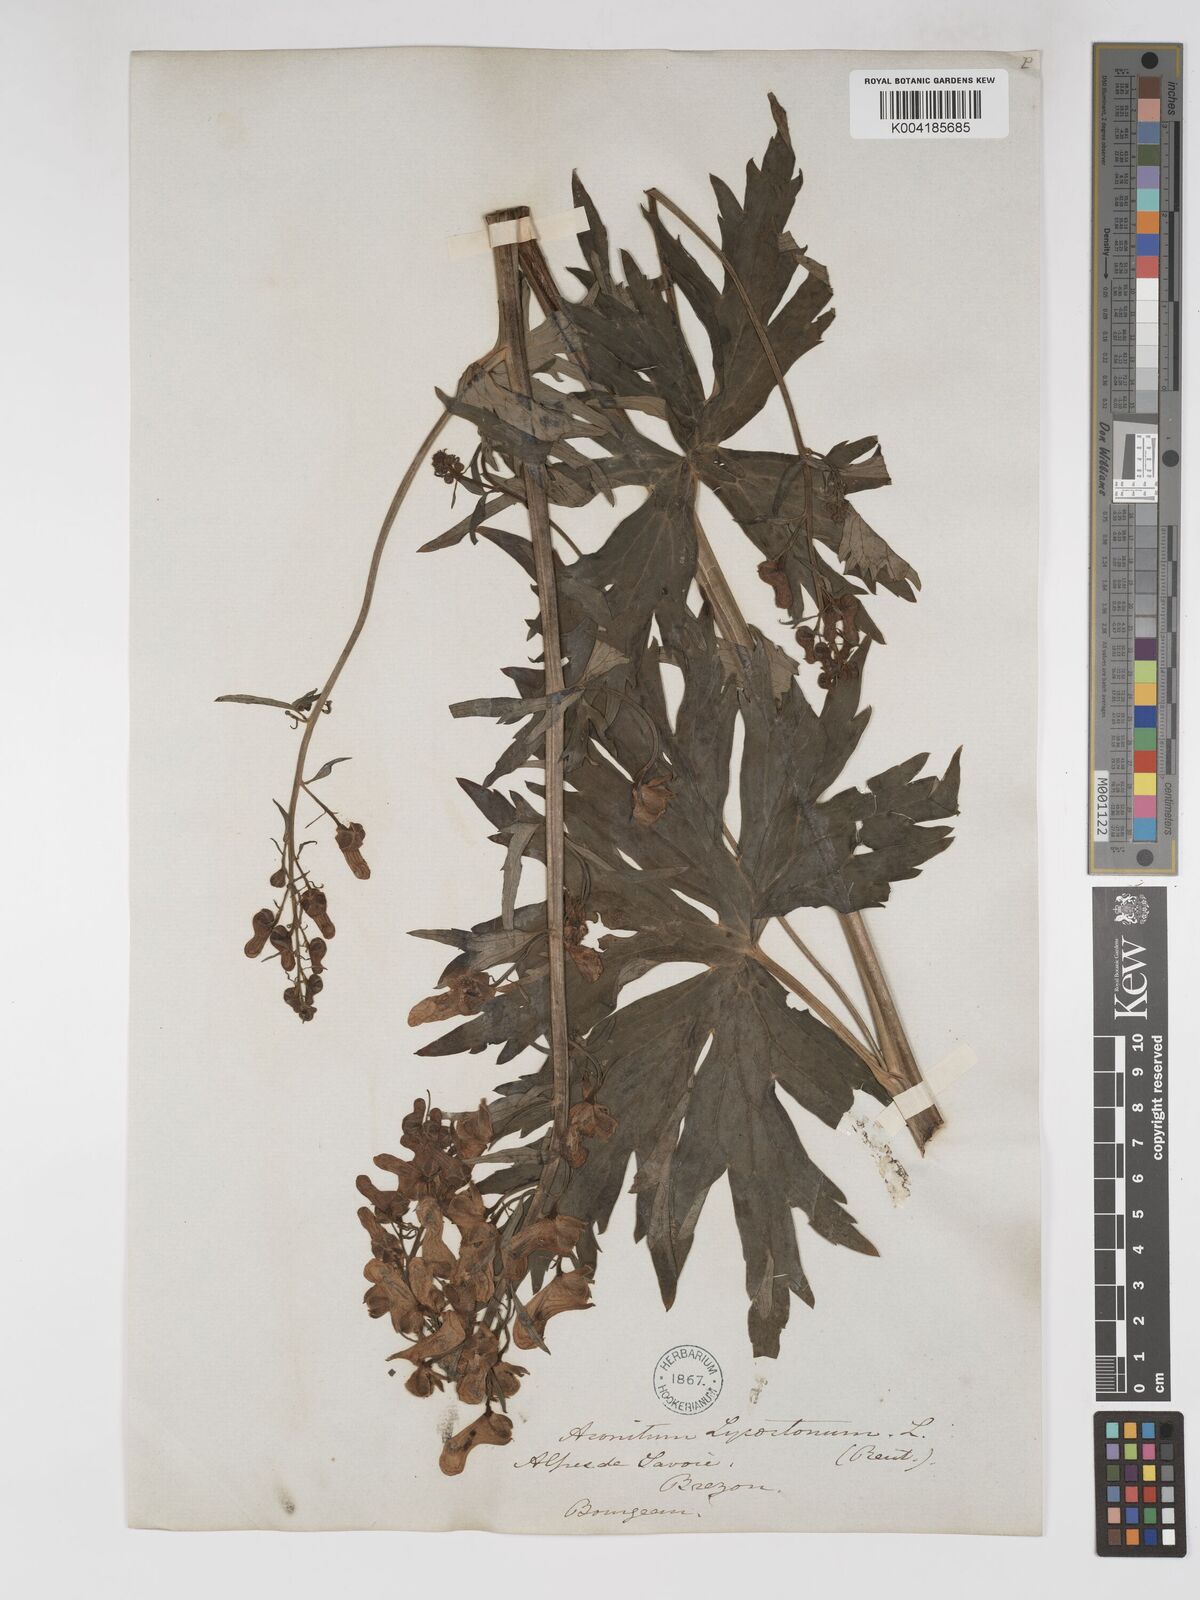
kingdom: Plantae
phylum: Tracheophyta
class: Magnoliopsida
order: Ranunculales
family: Ranunculaceae
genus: Aconitum
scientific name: Aconitum lycoctonum
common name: Wolf's-bane
